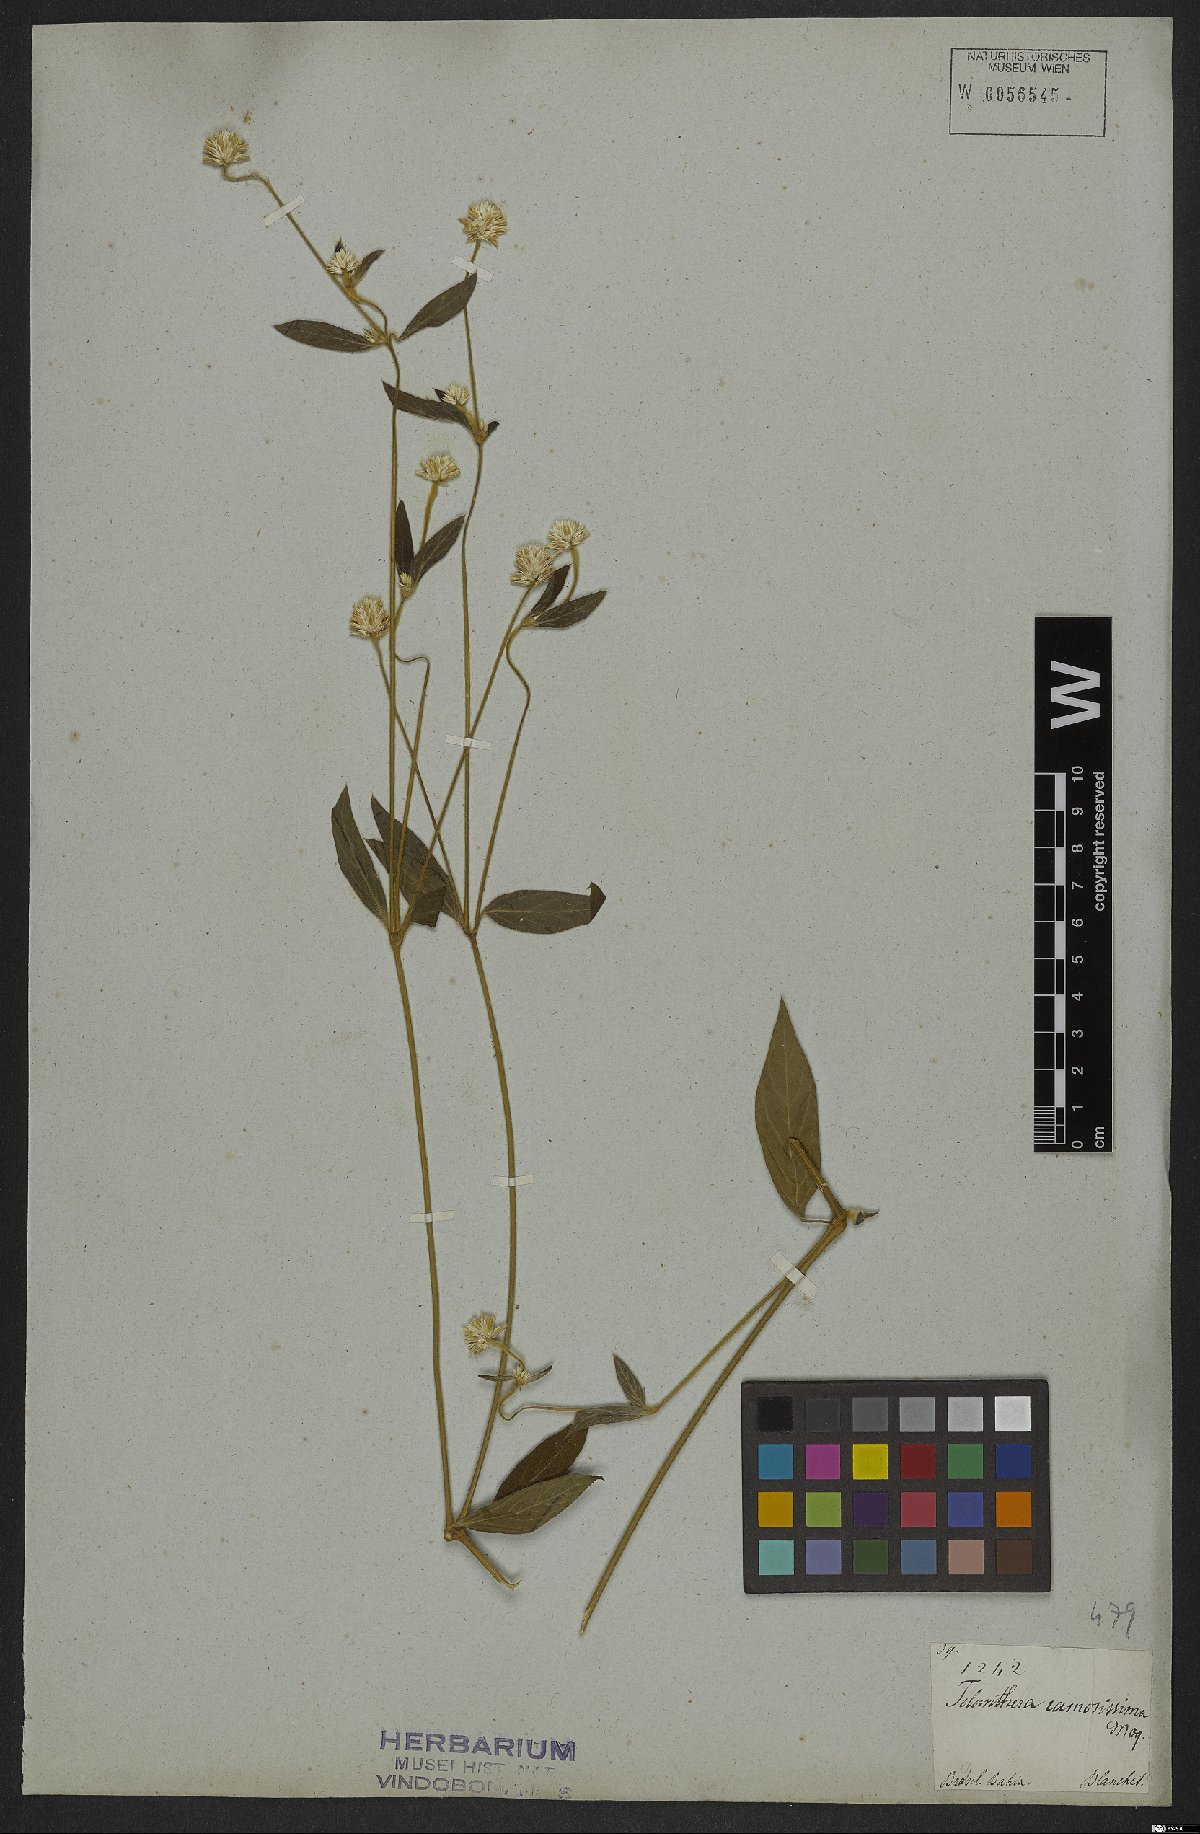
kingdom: Plantae
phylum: Tracheophyta
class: Magnoliopsida
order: Caryophyllales
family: Amaranthaceae
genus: Alternanthera
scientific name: Alternanthera brasiliana
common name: Brazilian joyweed
